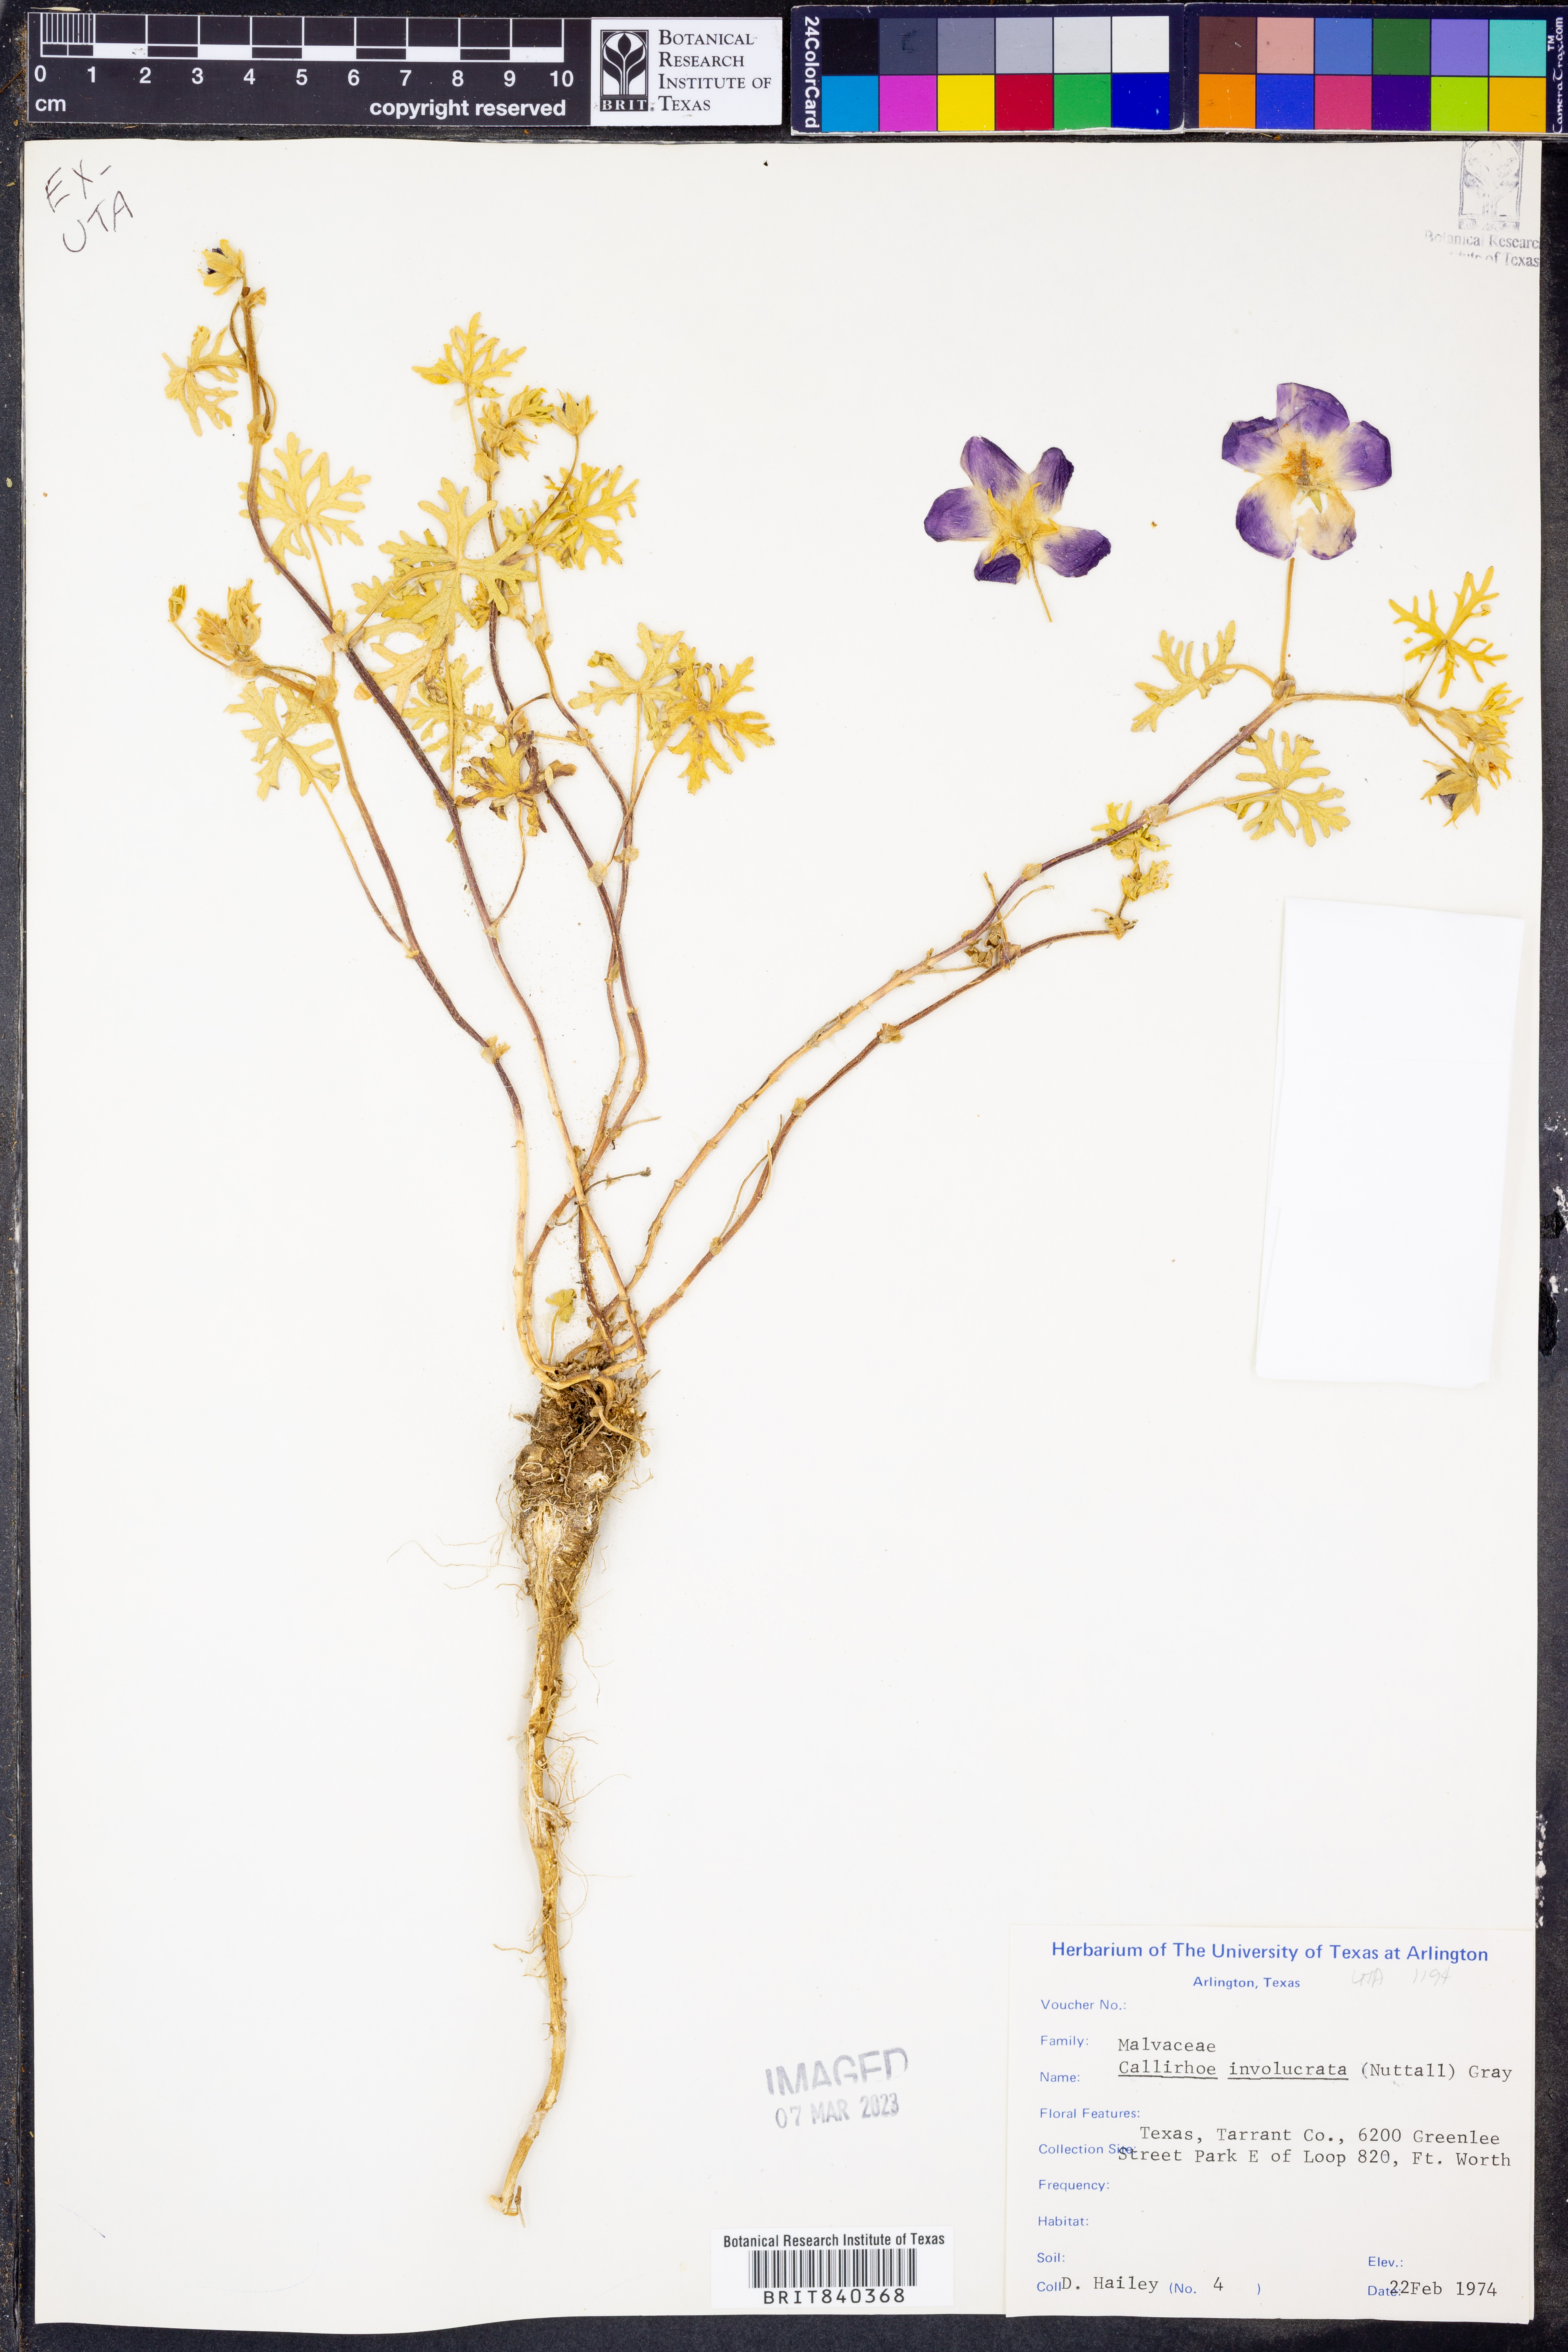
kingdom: Plantae
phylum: Tracheophyta
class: Magnoliopsida
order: Malvales
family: Malvaceae
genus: Callirhoe
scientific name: Callirhoe involucrata
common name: Purple poppy-mallow
